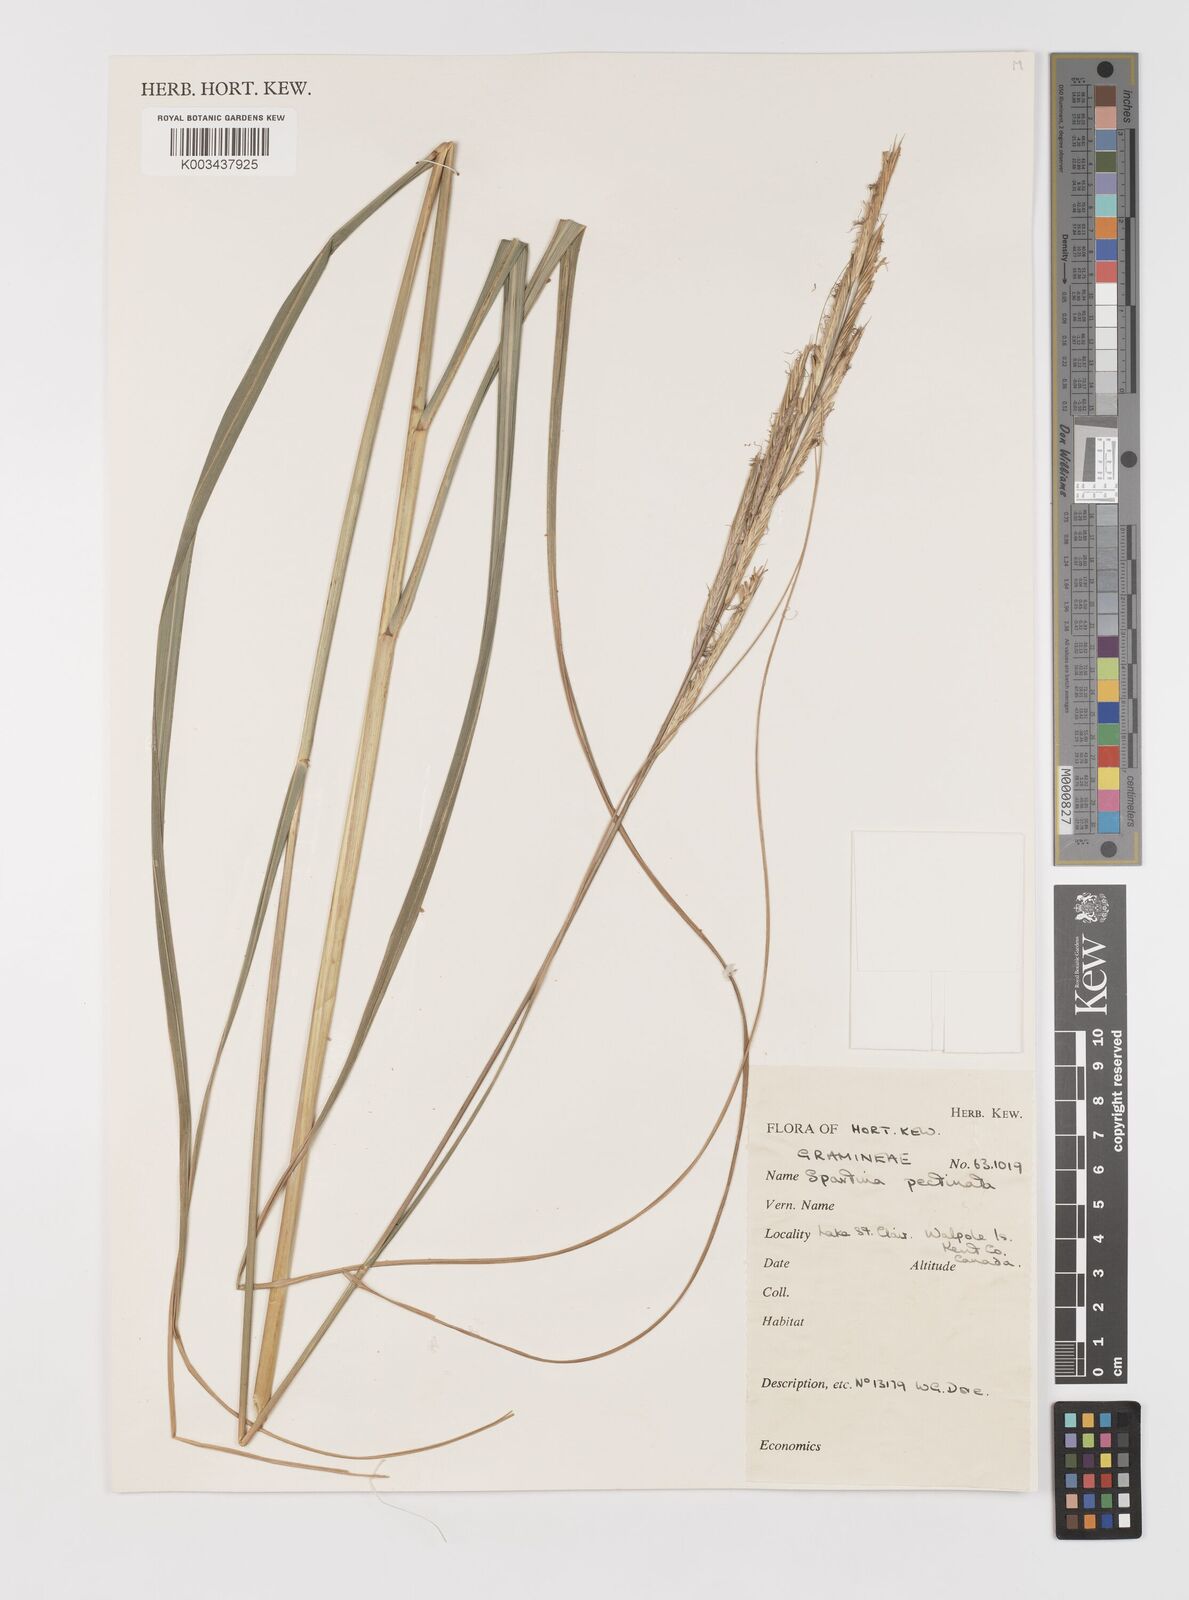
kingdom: Plantae
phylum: Tracheophyta
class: Liliopsida
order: Poales
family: Poaceae
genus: Sporobolus
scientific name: Sporobolus michauxianus
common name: Freshwater cordgrass
